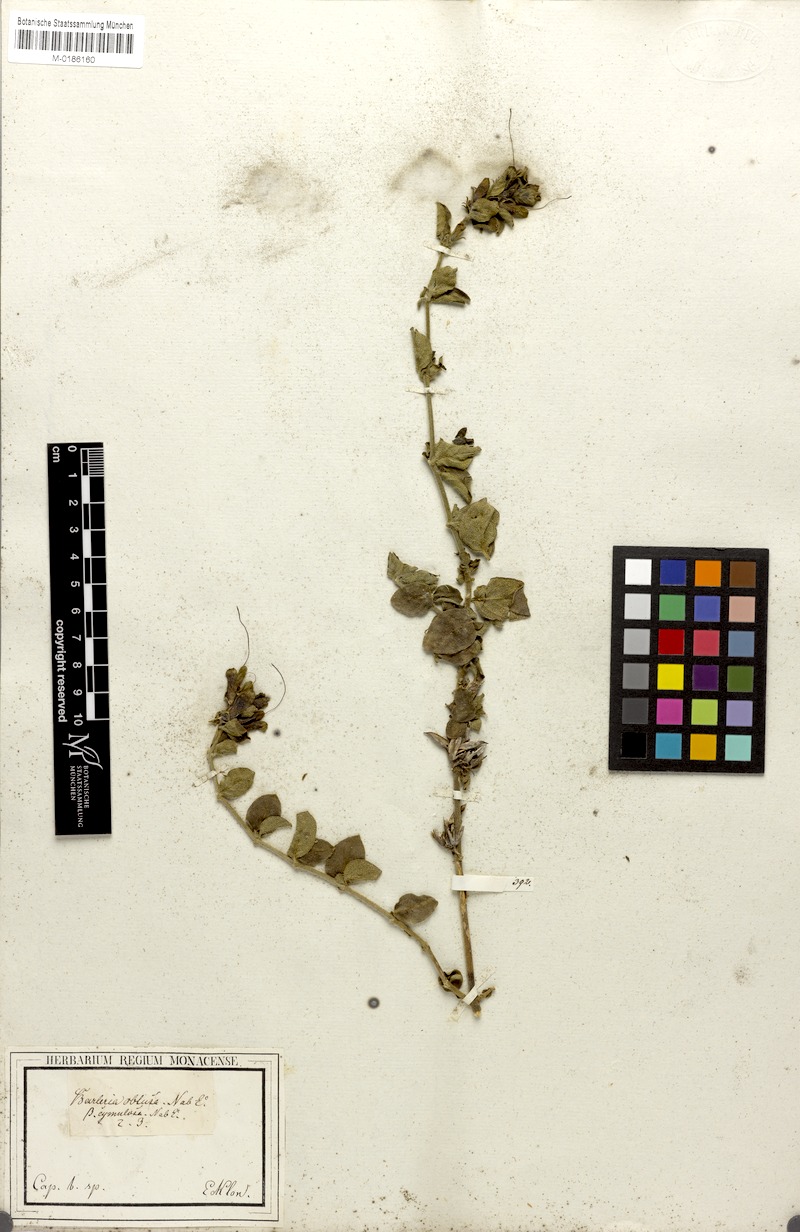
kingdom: Plantae
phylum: Tracheophyta
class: Magnoliopsida
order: Lamiales
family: Acanthaceae
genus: Barleria
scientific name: Barleria obtusa
